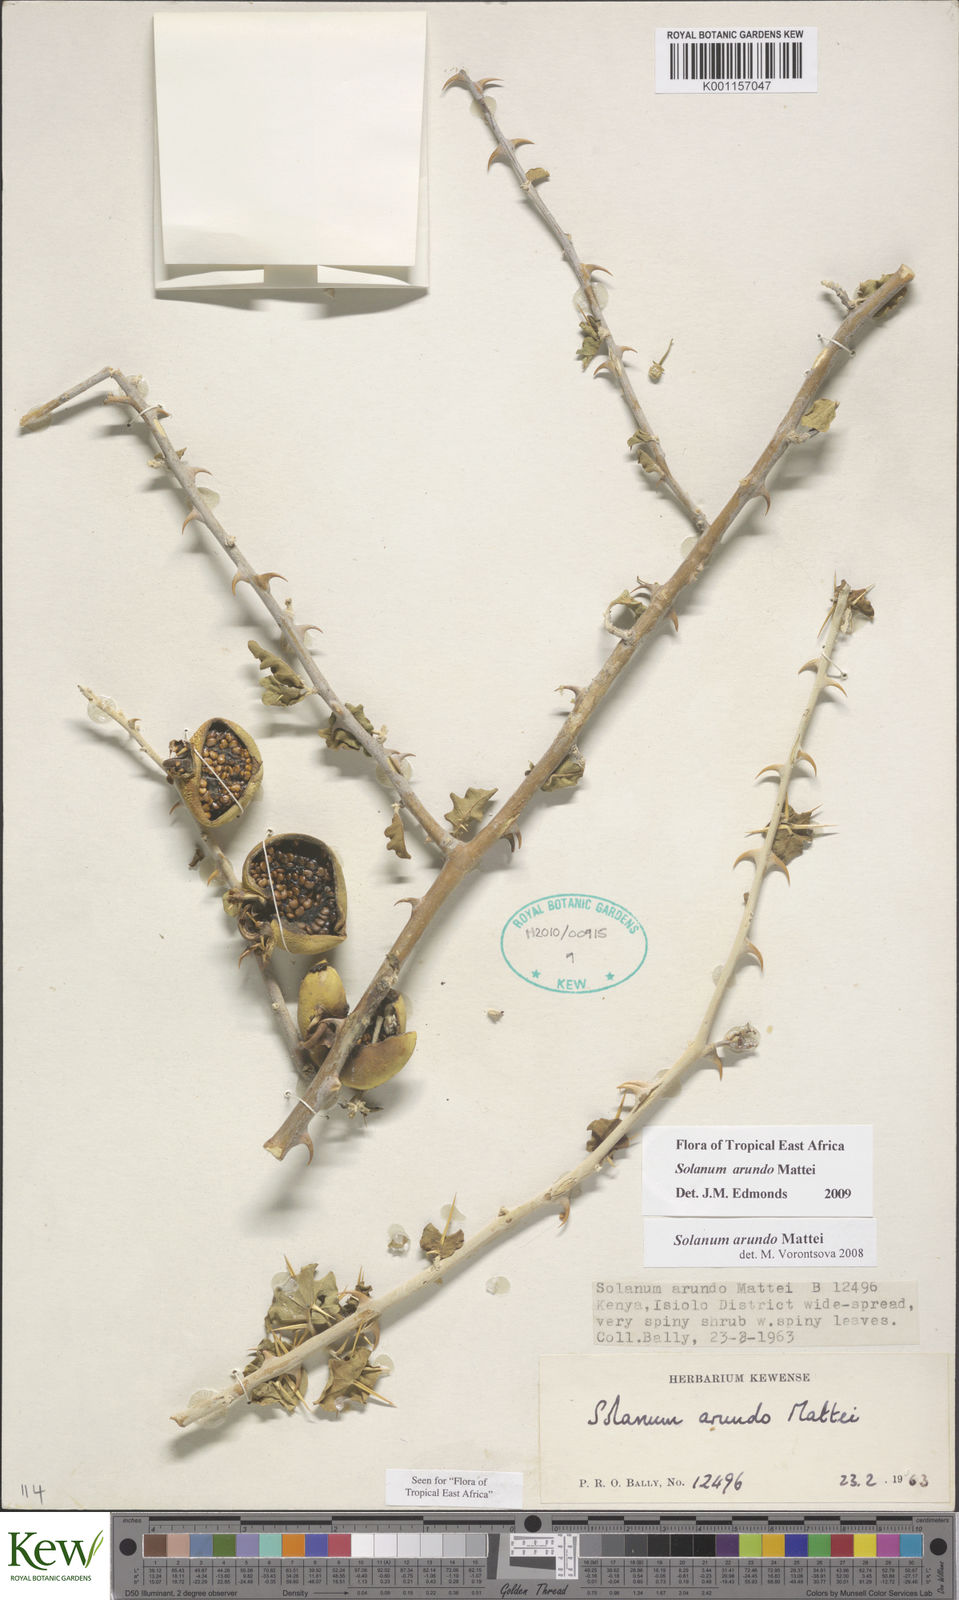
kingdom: Plantae
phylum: Tracheophyta
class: Magnoliopsida
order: Solanales
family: Solanaceae
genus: Solanum
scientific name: Solanum arundo
